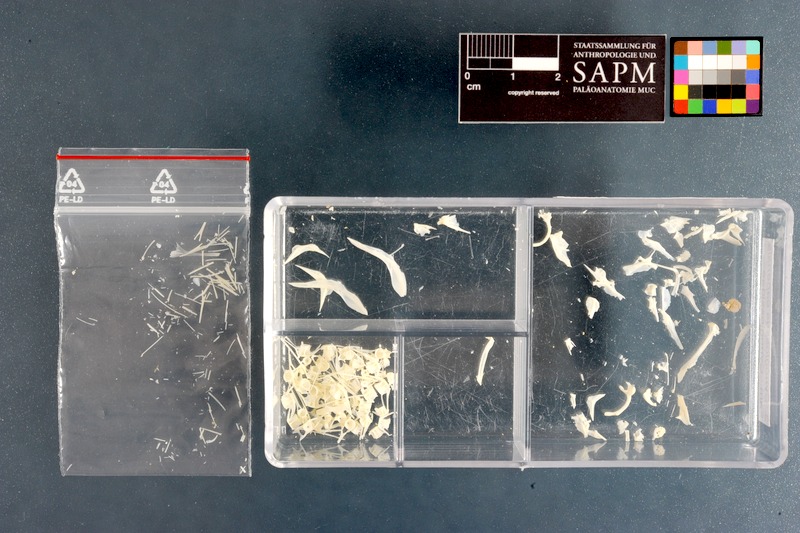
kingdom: Animalia
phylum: Chordata
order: Pleuronectiformes
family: Cynoglossidae
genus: Cynoglossus
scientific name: Cynoglossus capensis
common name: Sand tonguefish
